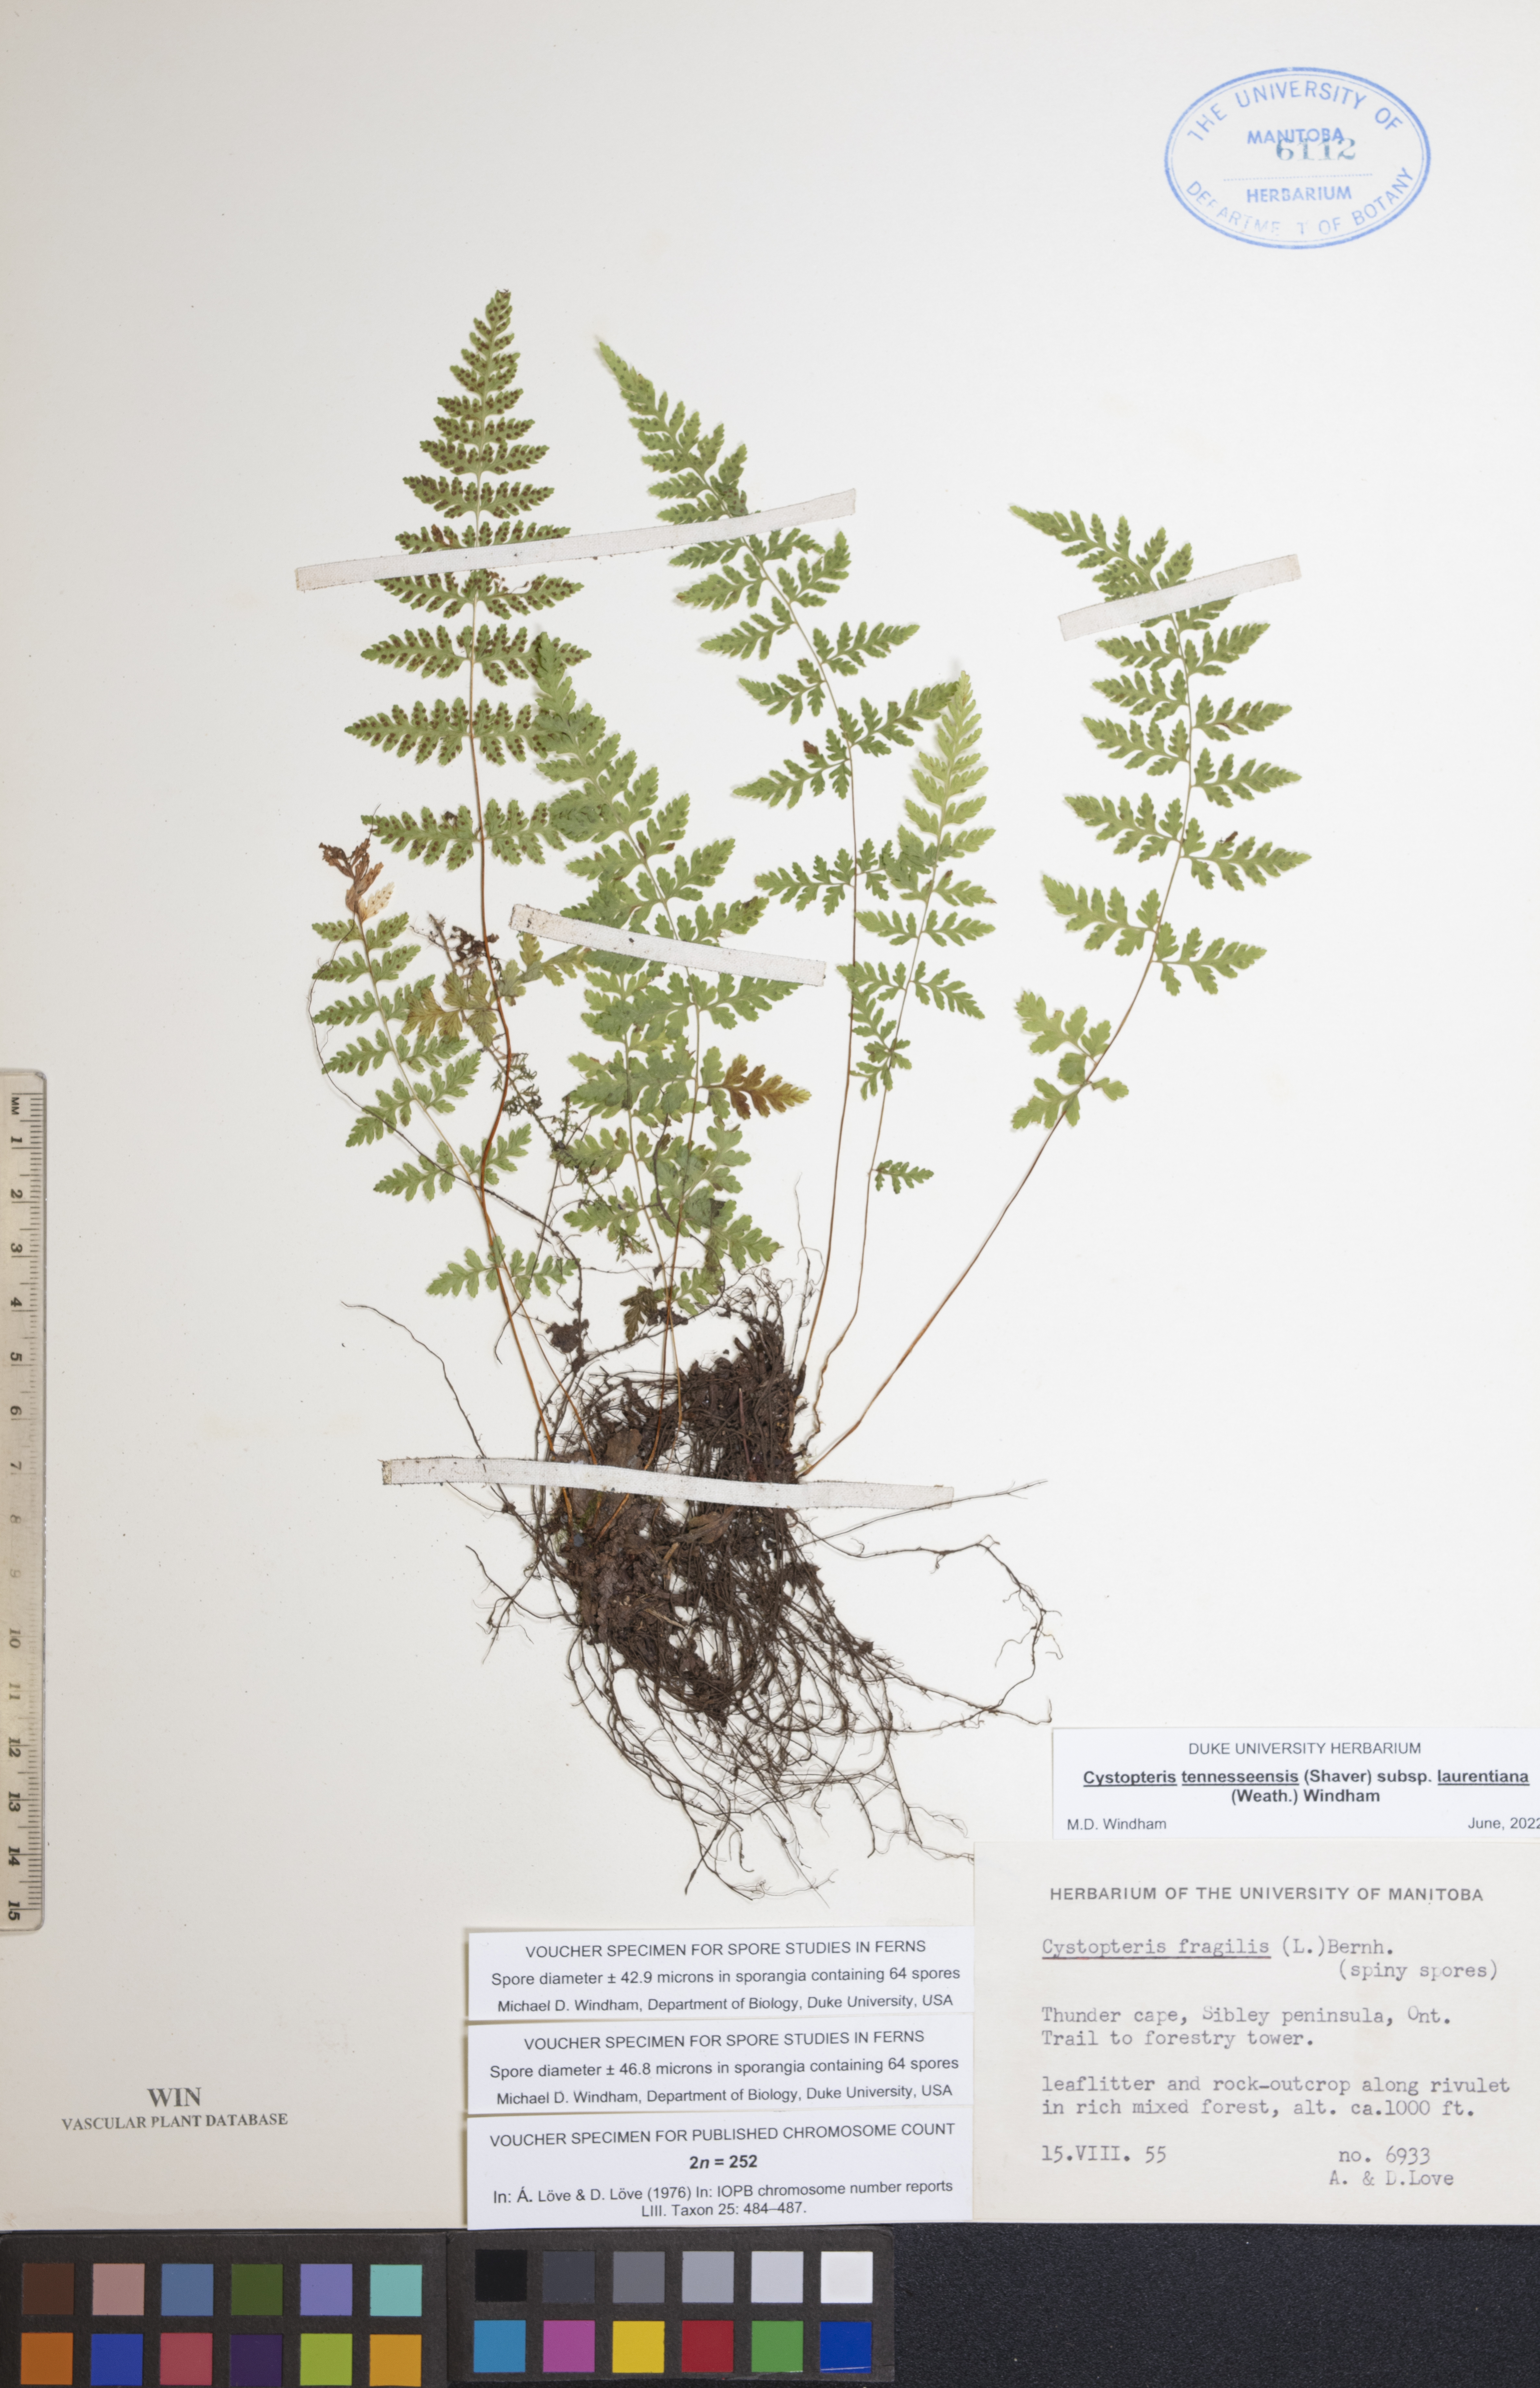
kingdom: Plantae
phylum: Tracheophyta
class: Polypodiopsida
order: Polypodiales
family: Cystopteridaceae
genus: Cystopteris
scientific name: Cystopteris laurentiana
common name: Blasdell's laurentian bladder fern
